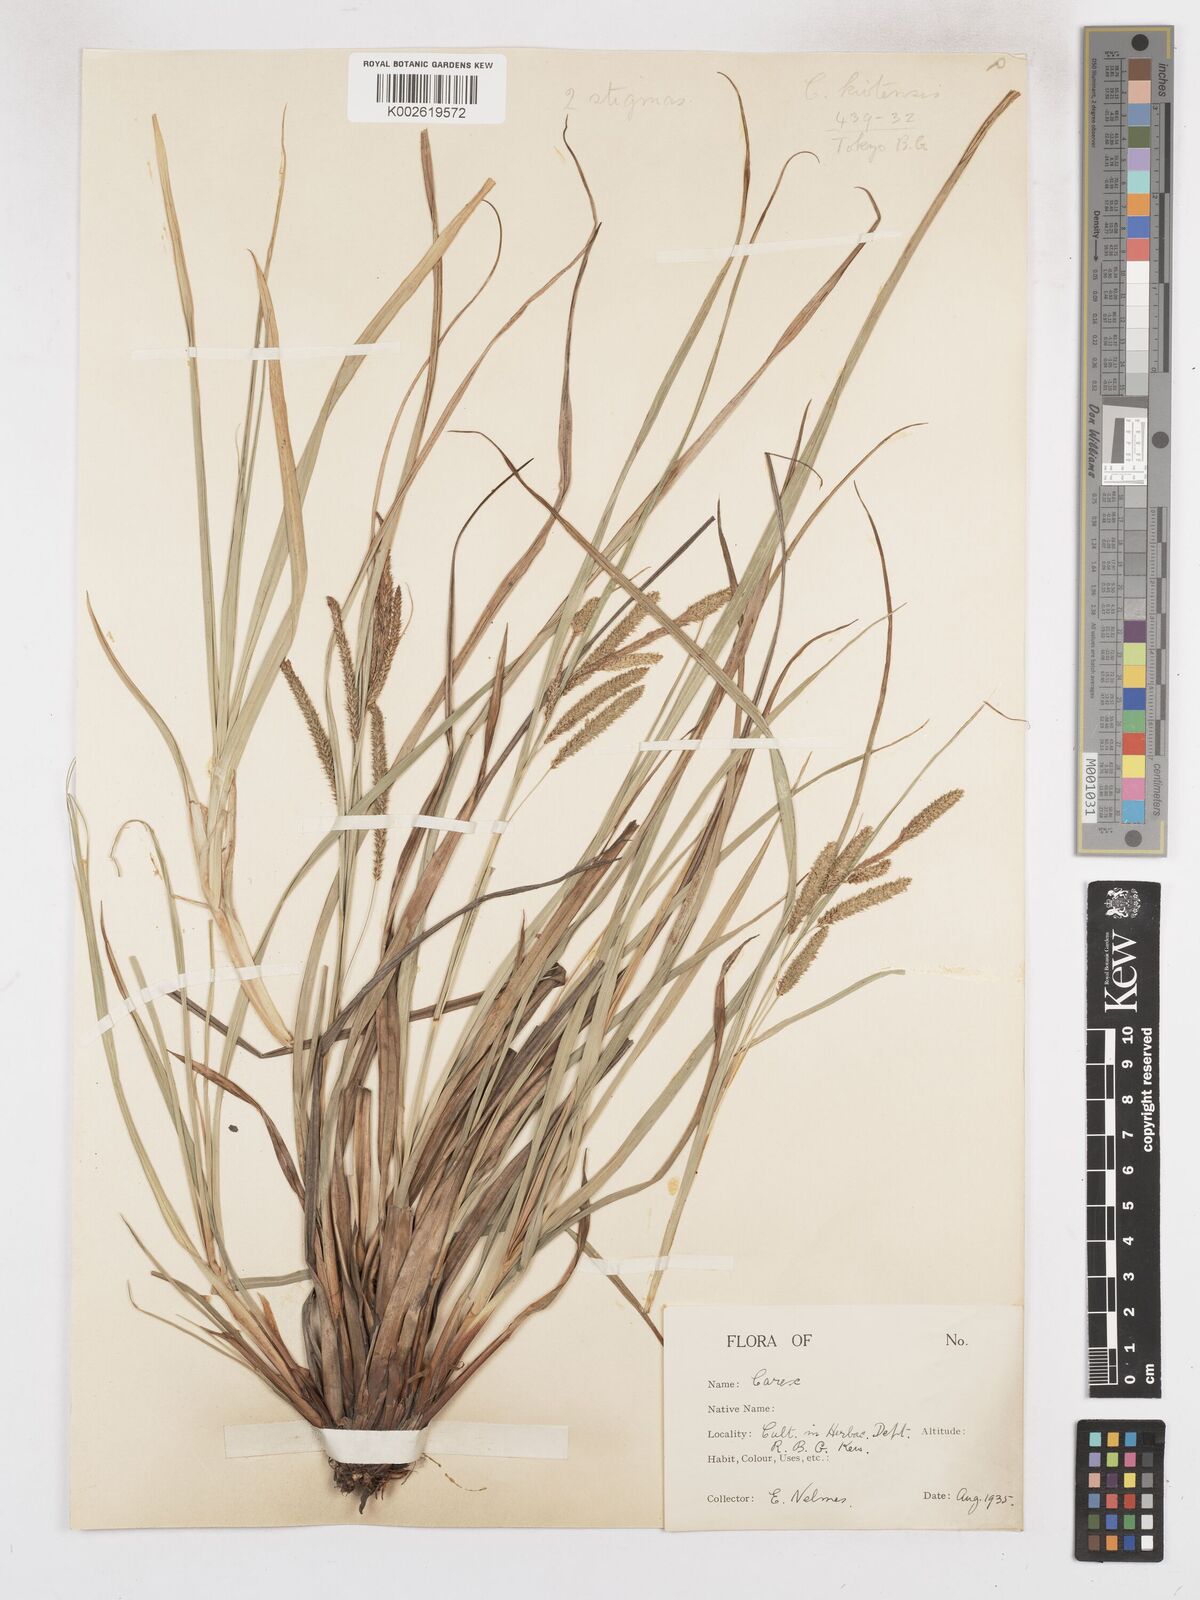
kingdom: Plantae
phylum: Tracheophyta
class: Liliopsida
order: Poales
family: Cyperaceae
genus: Carex
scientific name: Carex prasina
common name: Drooping sedge
